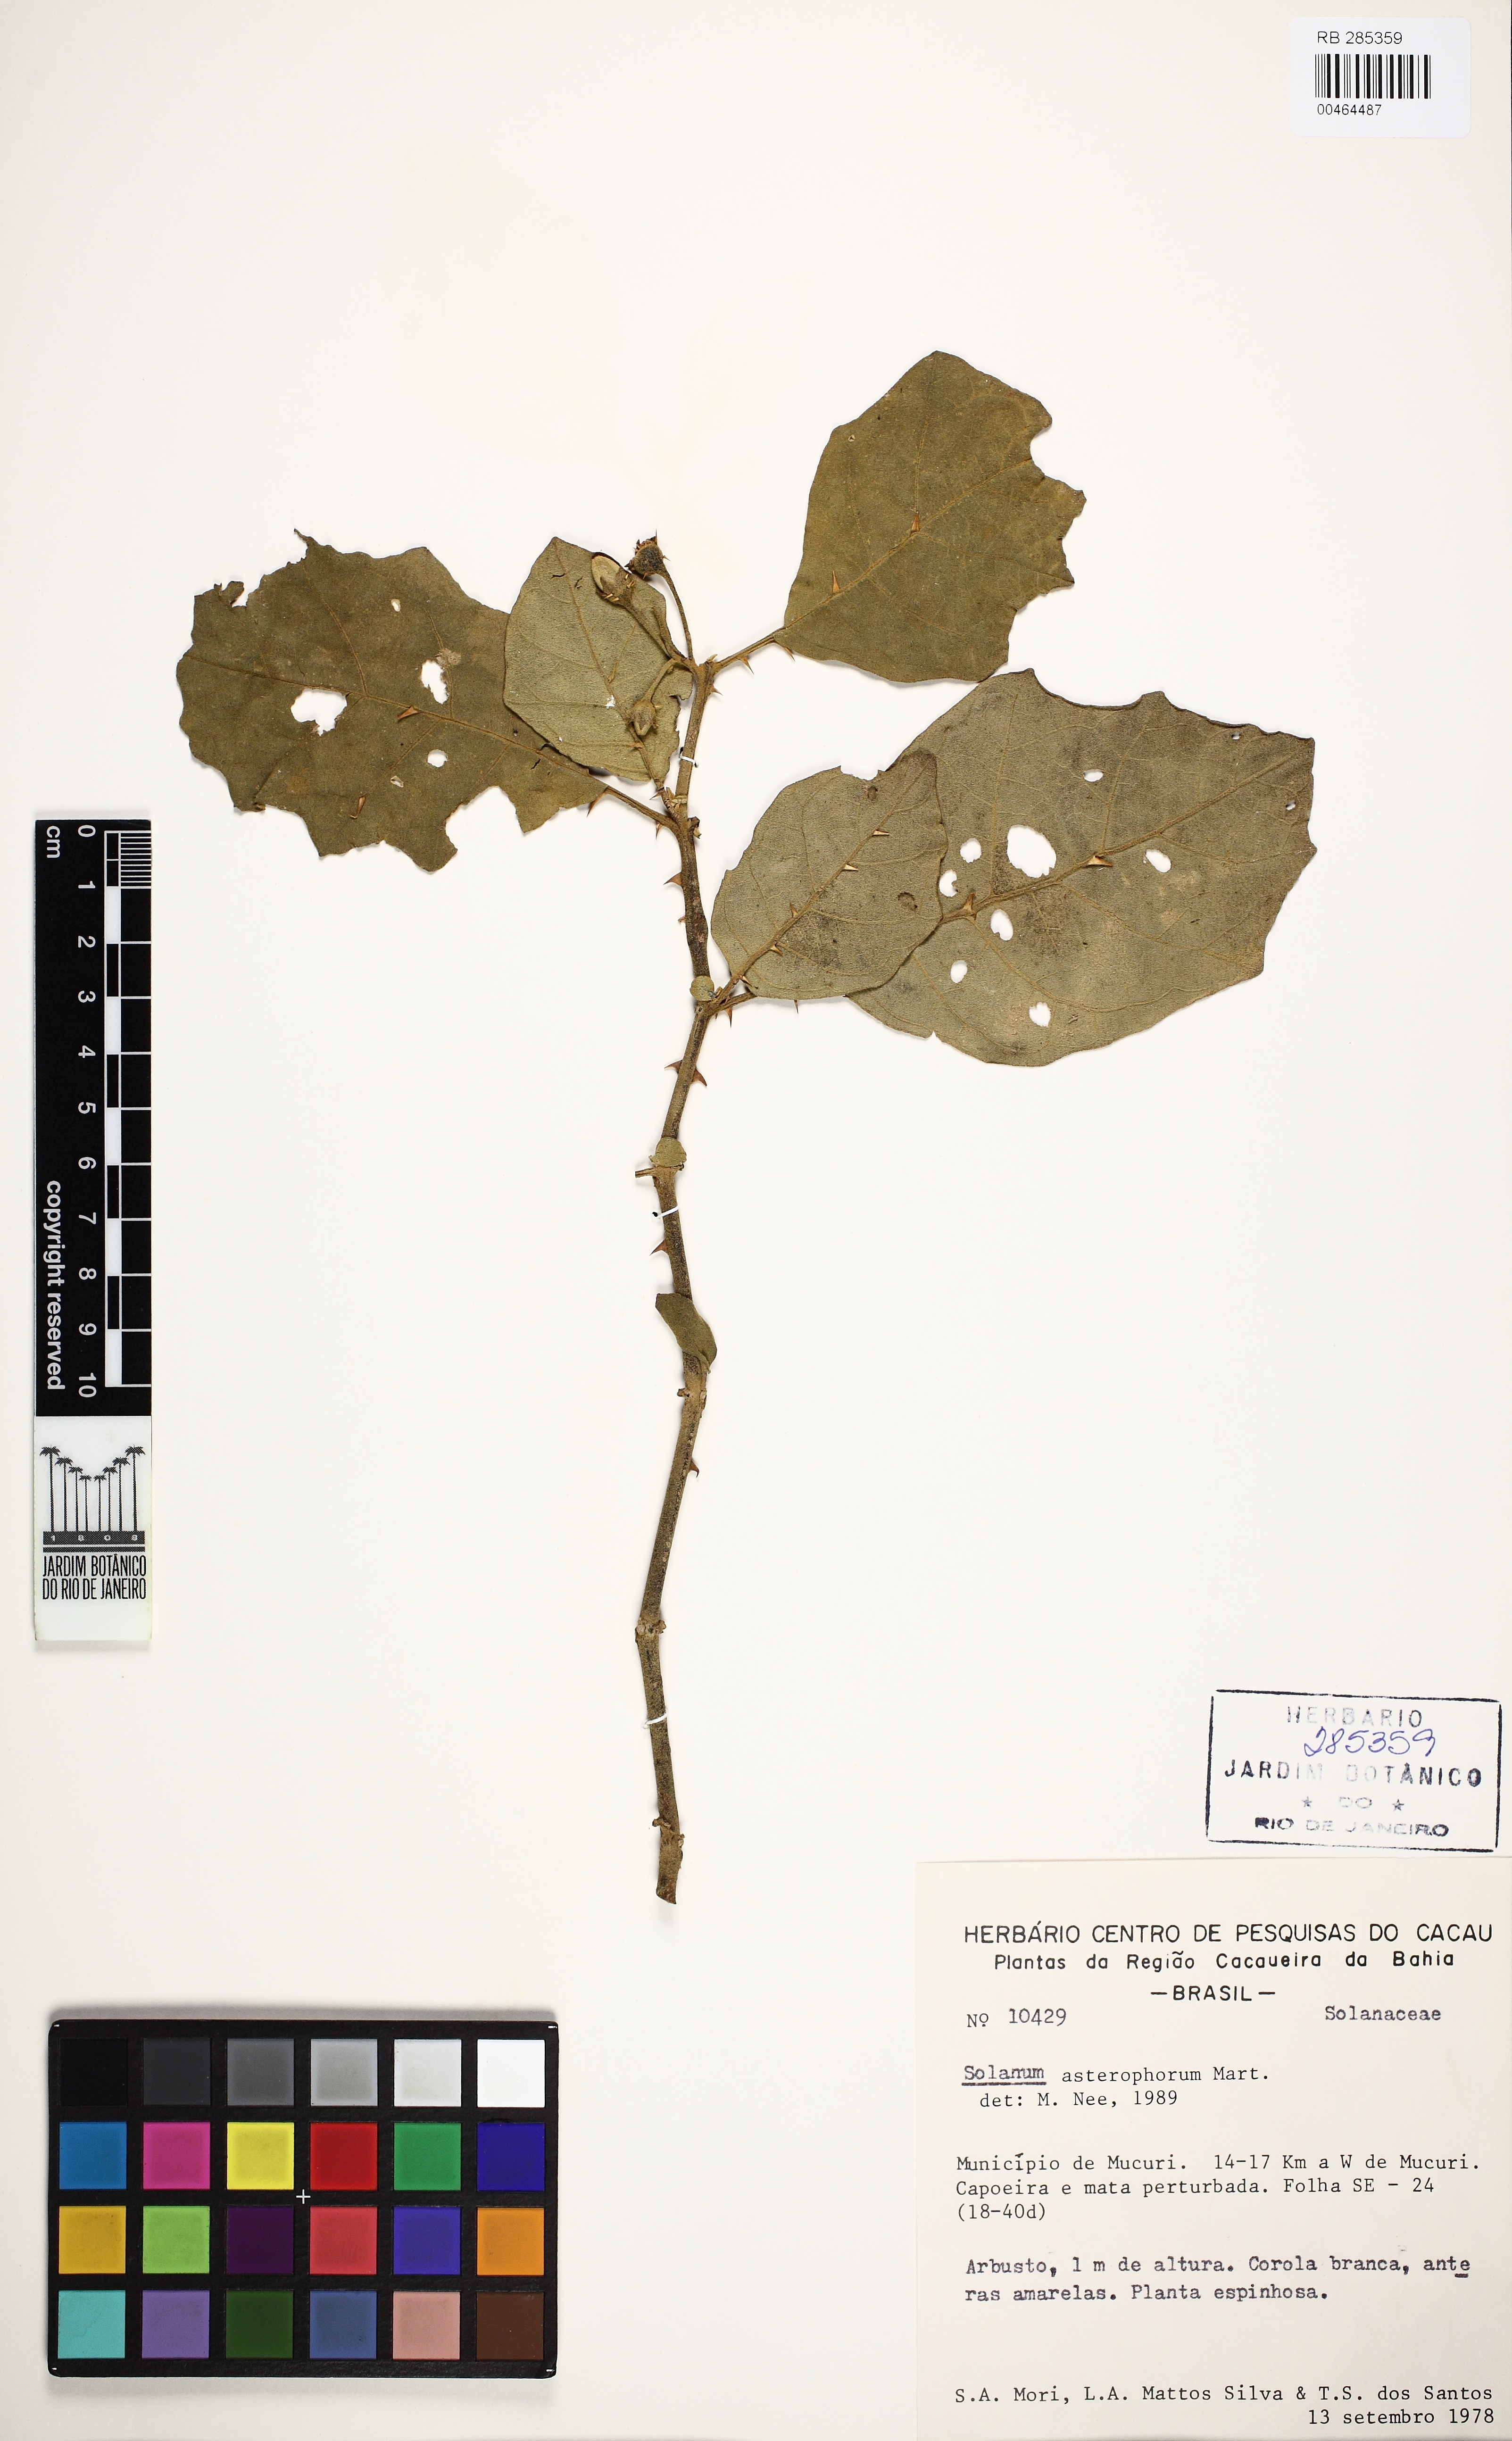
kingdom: Plantae
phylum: Tracheophyta
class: Magnoliopsida
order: Solanales
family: Solanaceae
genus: Solanum
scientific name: Solanum asterophorum
